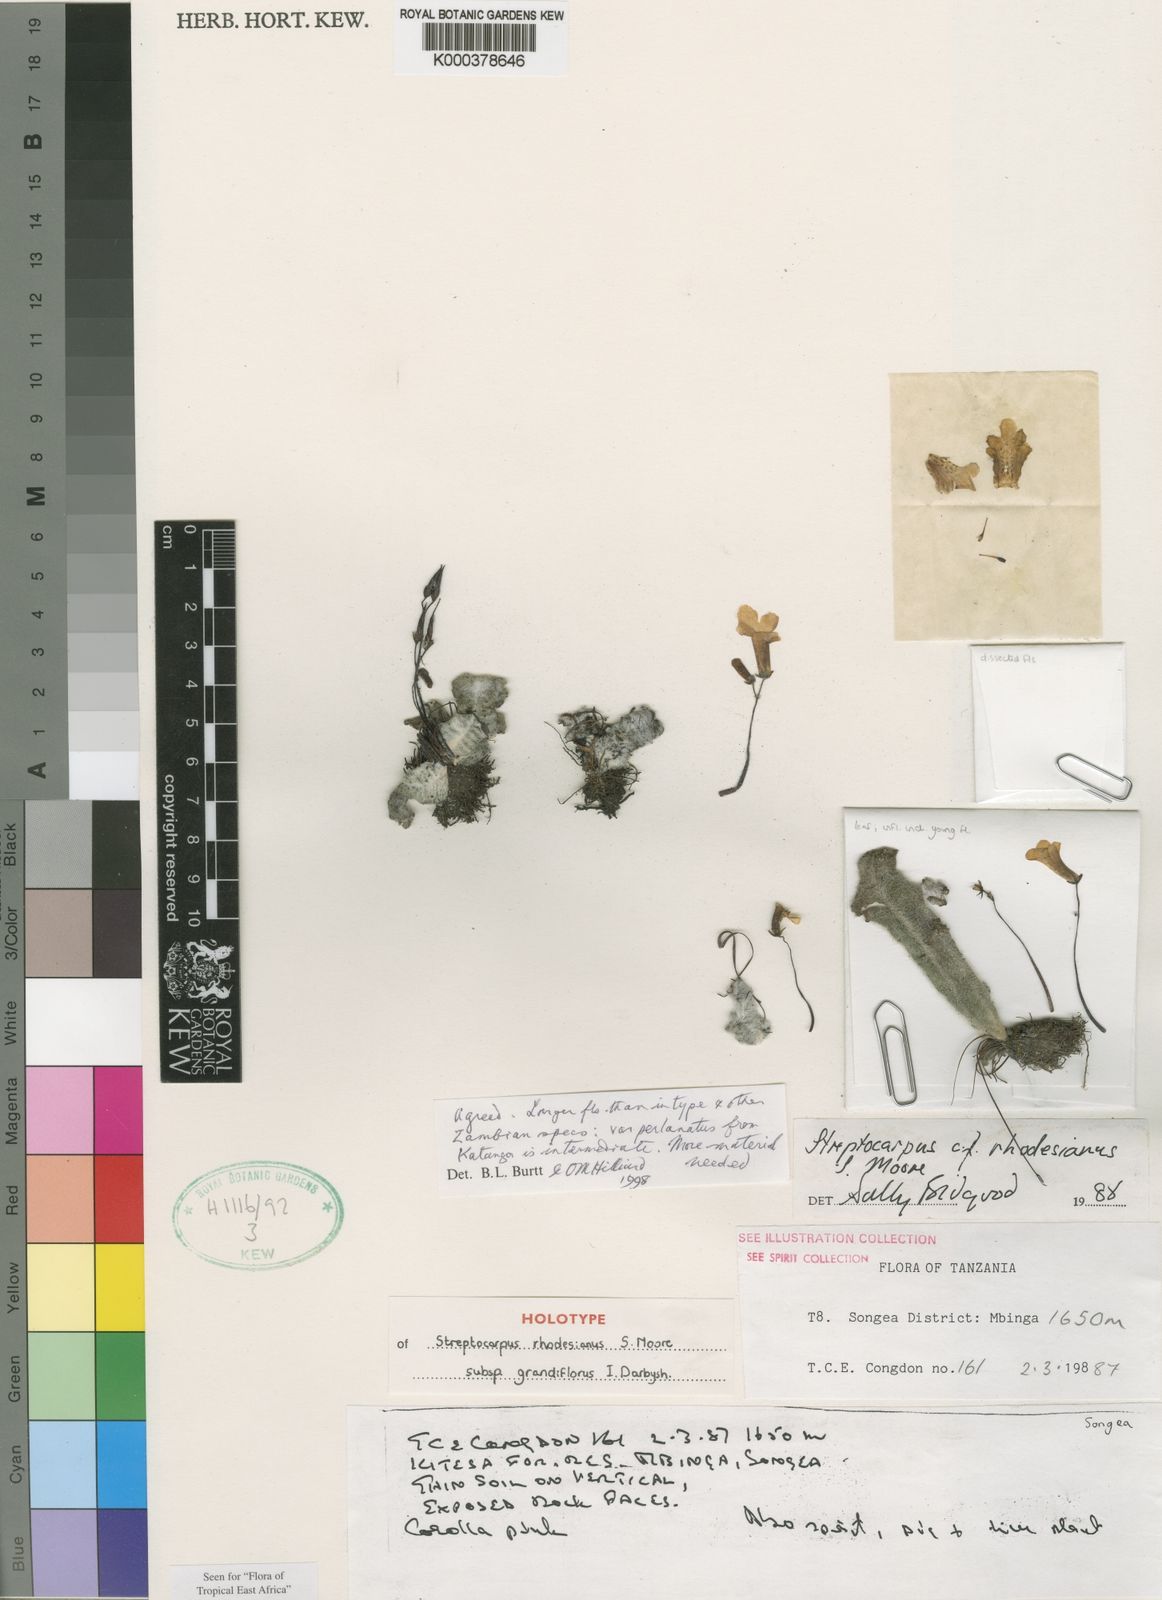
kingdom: Plantae
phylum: Tracheophyta
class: Magnoliopsida
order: Lamiales
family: Gesneriaceae
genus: Streptocarpus
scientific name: Streptocarpus rhodesianus
